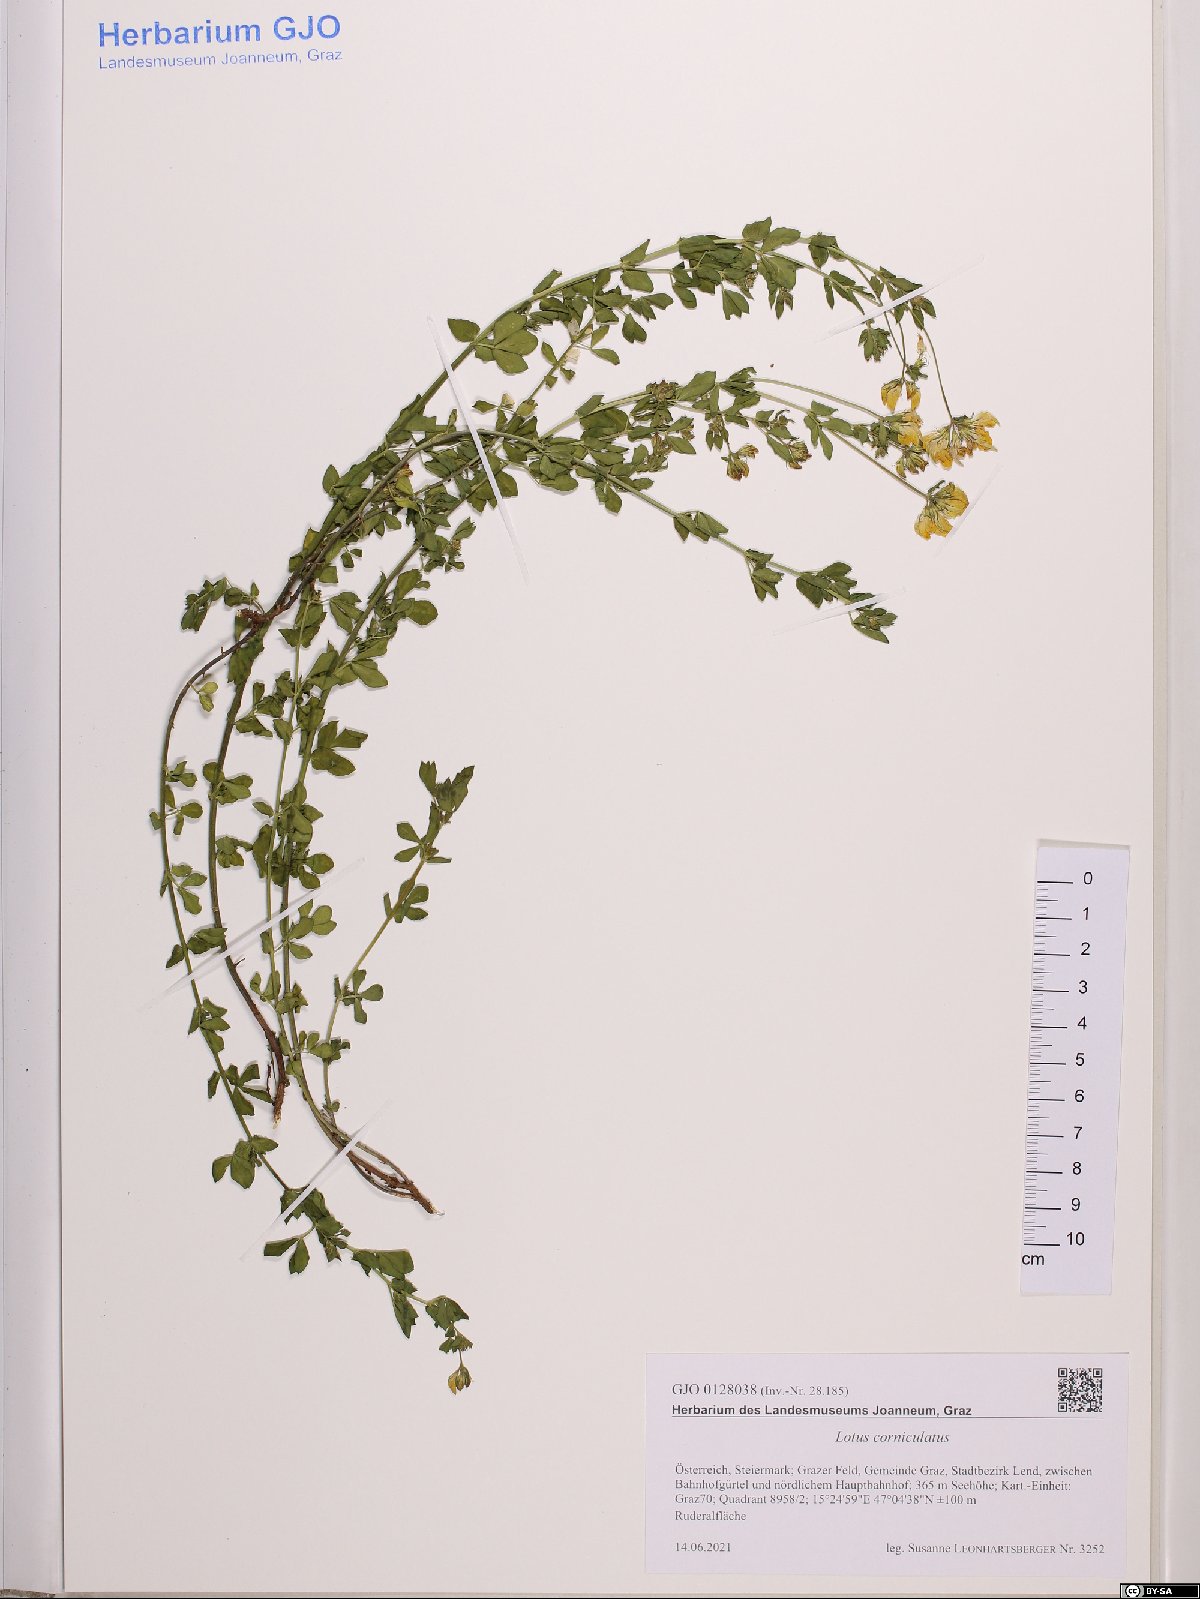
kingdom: Plantae
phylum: Tracheophyta
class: Magnoliopsida
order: Fabales
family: Fabaceae
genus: Lotus
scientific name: Lotus corniculatus
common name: Common bird's-foot-trefoil
